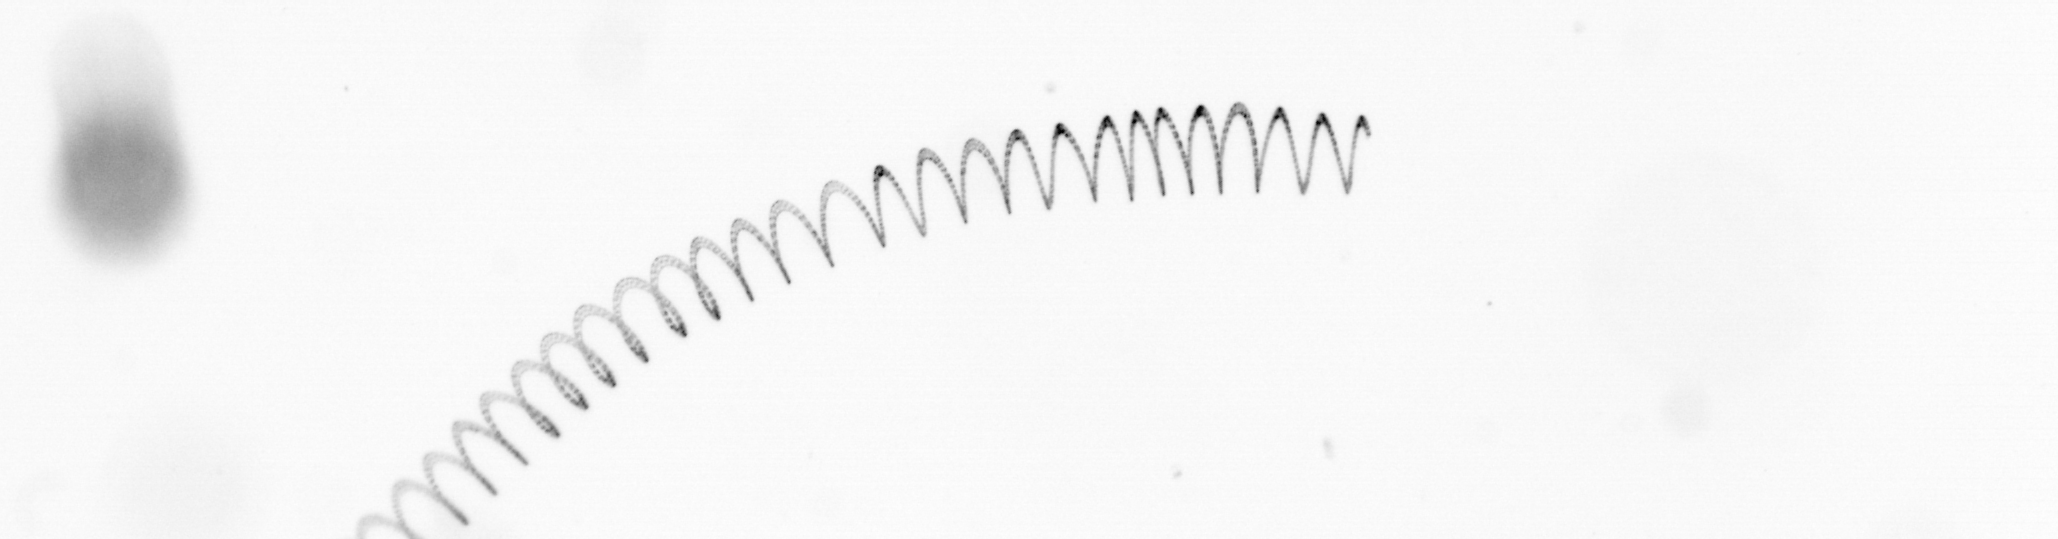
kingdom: Chromista
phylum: Ochrophyta
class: Bacillariophyceae
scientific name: Bacillariophyceae
